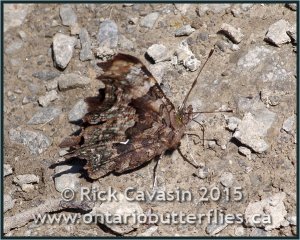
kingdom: Animalia
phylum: Arthropoda
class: Insecta
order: Lepidoptera
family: Nymphalidae
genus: Polygonia
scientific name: Polygonia faunus
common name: Green Comma
